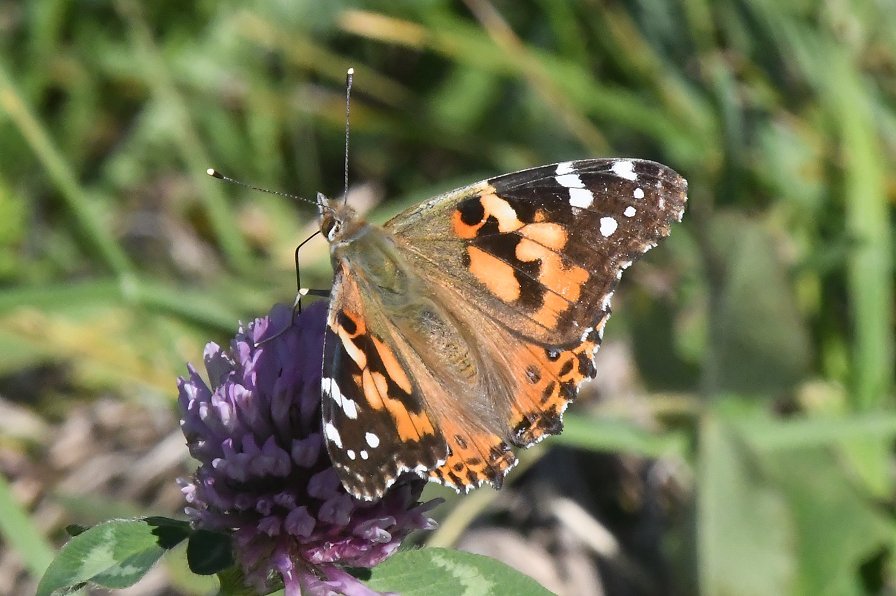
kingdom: Animalia
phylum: Arthropoda
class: Insecta
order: Lepidoptera
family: Nymphalidae
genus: Vanessa
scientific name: Vanessa cardui
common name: Painted Lady
